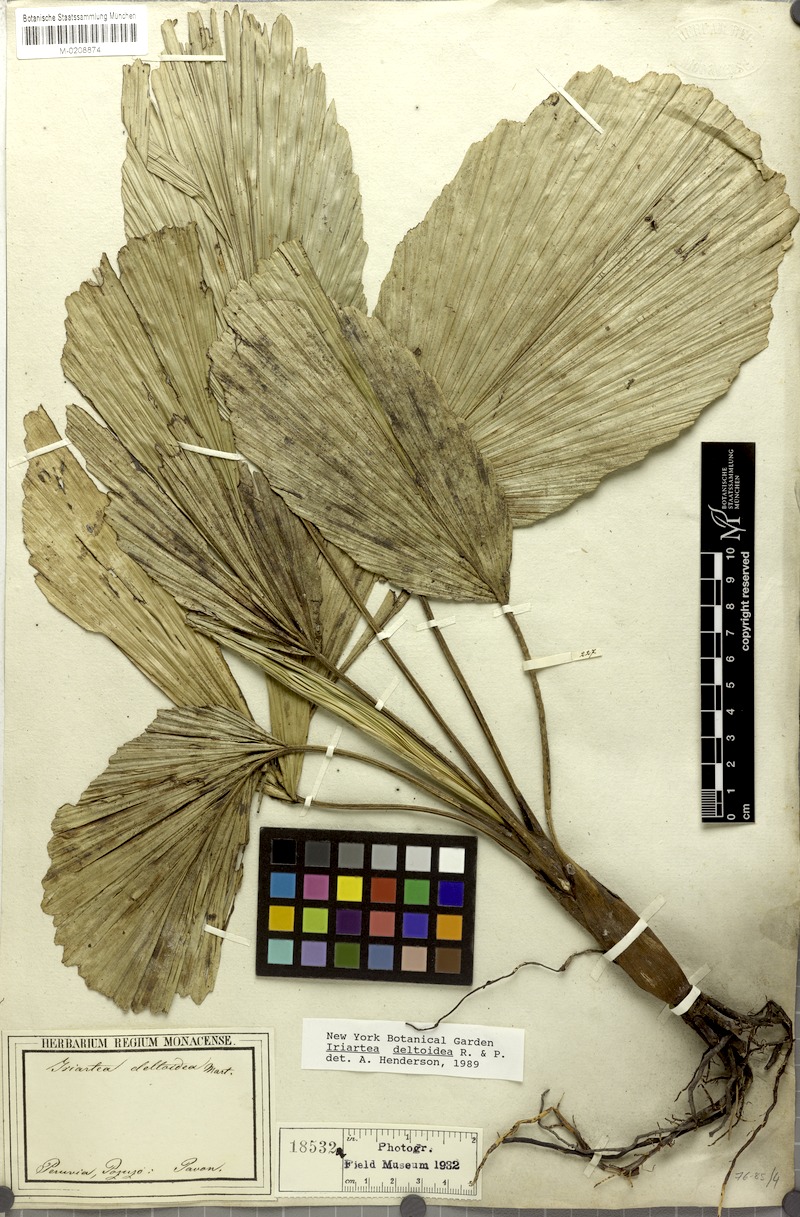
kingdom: Plantae
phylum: Tracheophyta
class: Liliopsida
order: Arecales
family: Arecaceae
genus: Iriartea
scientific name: Iriartea deltoidea
